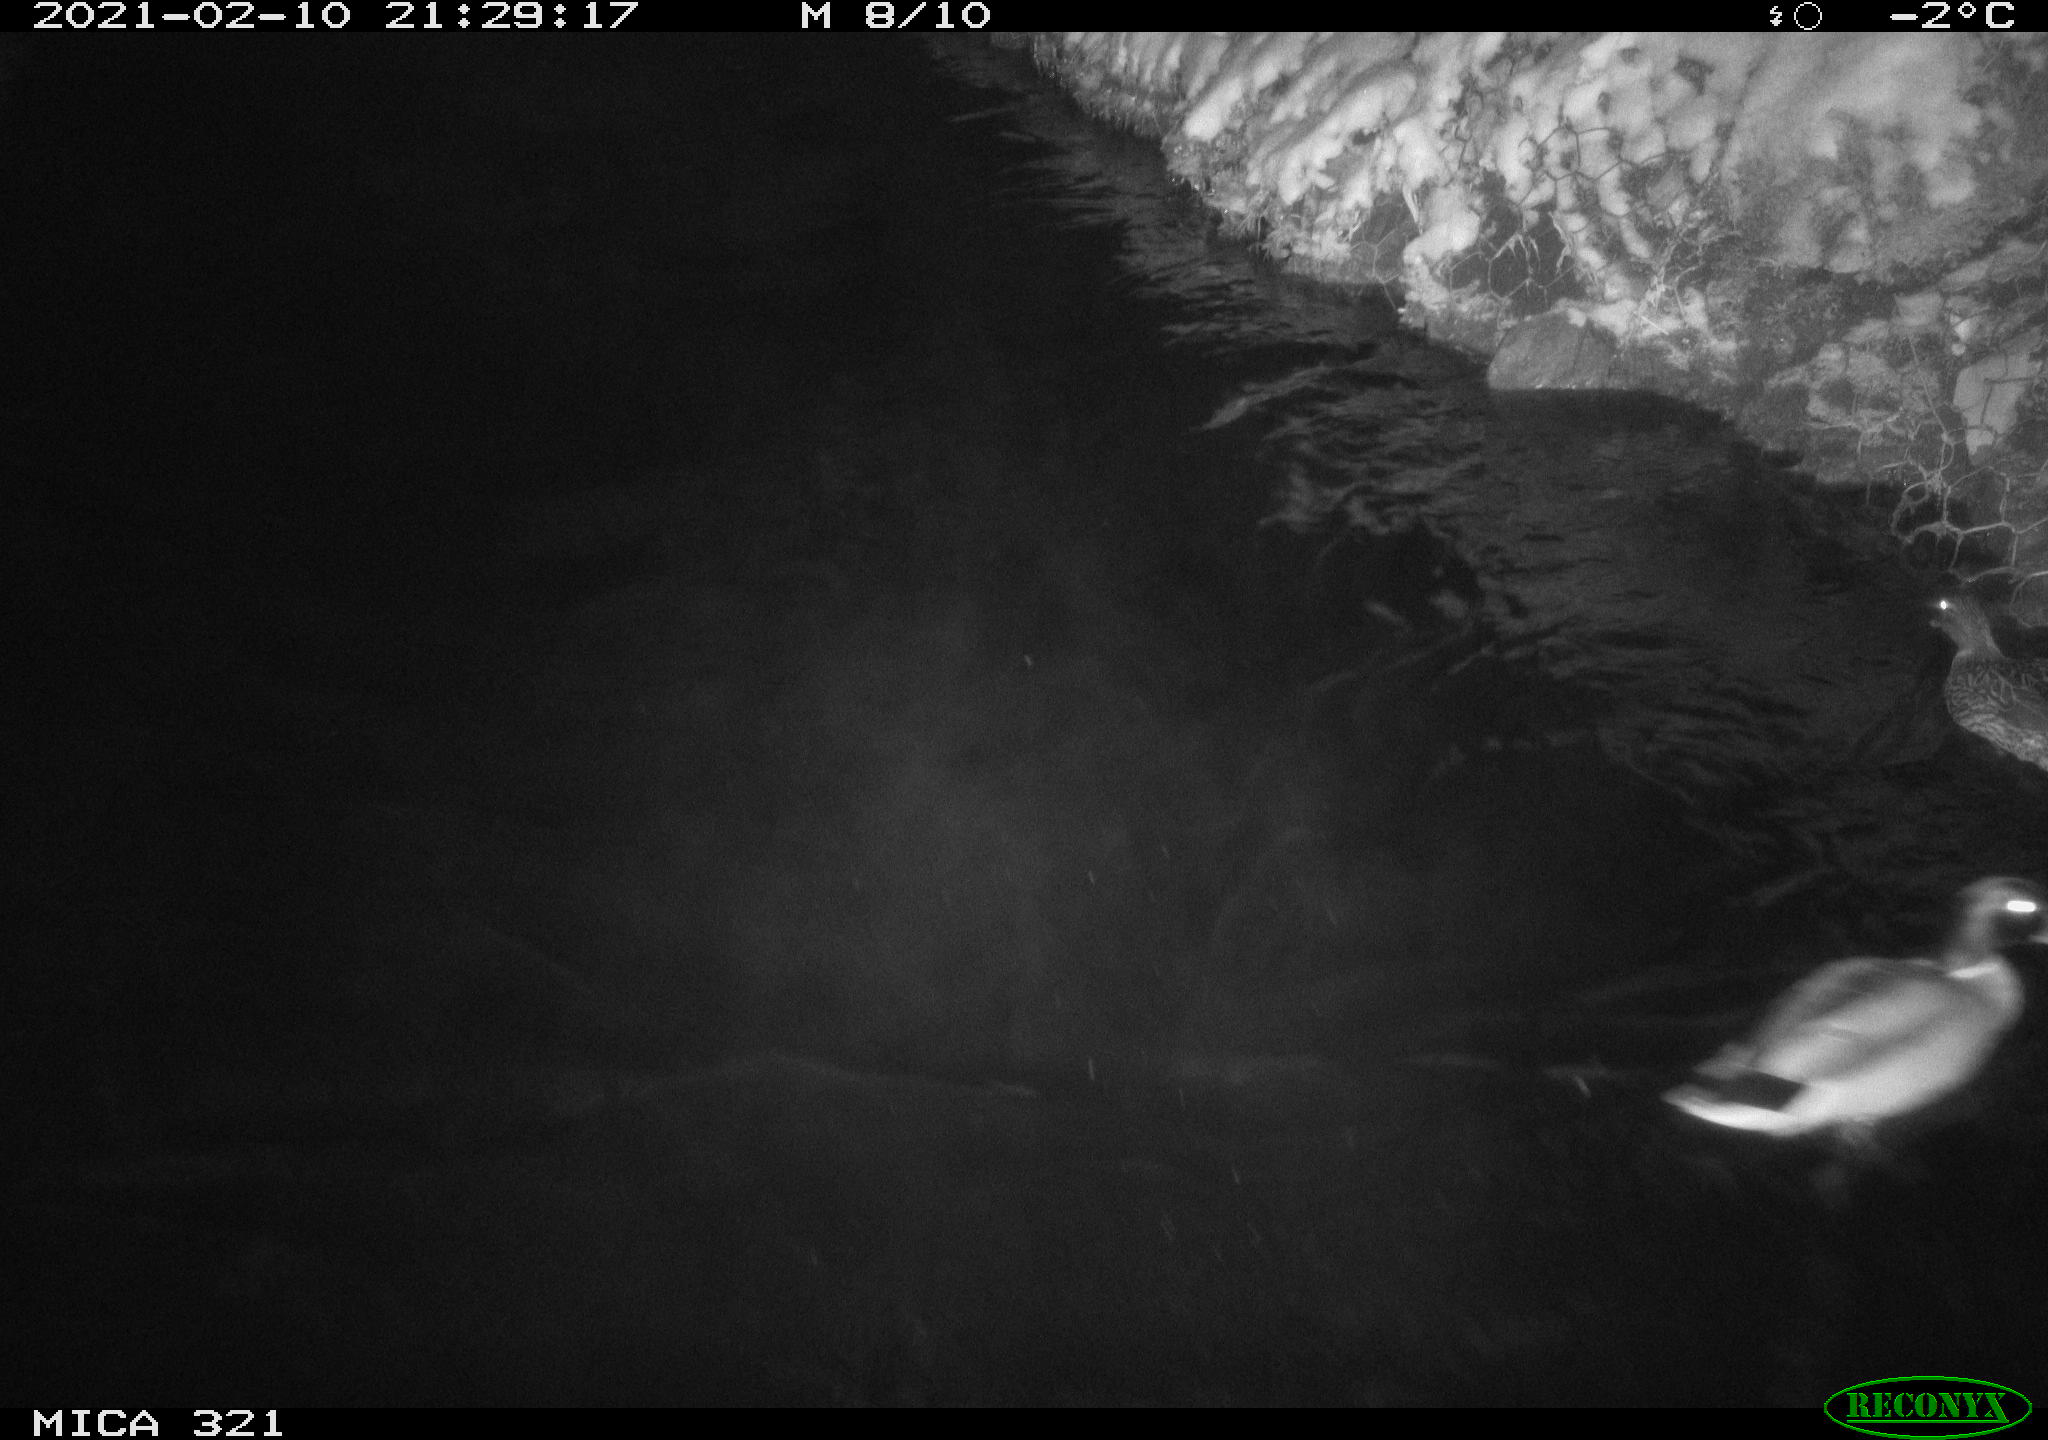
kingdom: Animalia
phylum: Chordata
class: Aves
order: Anseriformes
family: Anatidae
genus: Anas
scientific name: Anas platyrhynchos
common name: Mallard
